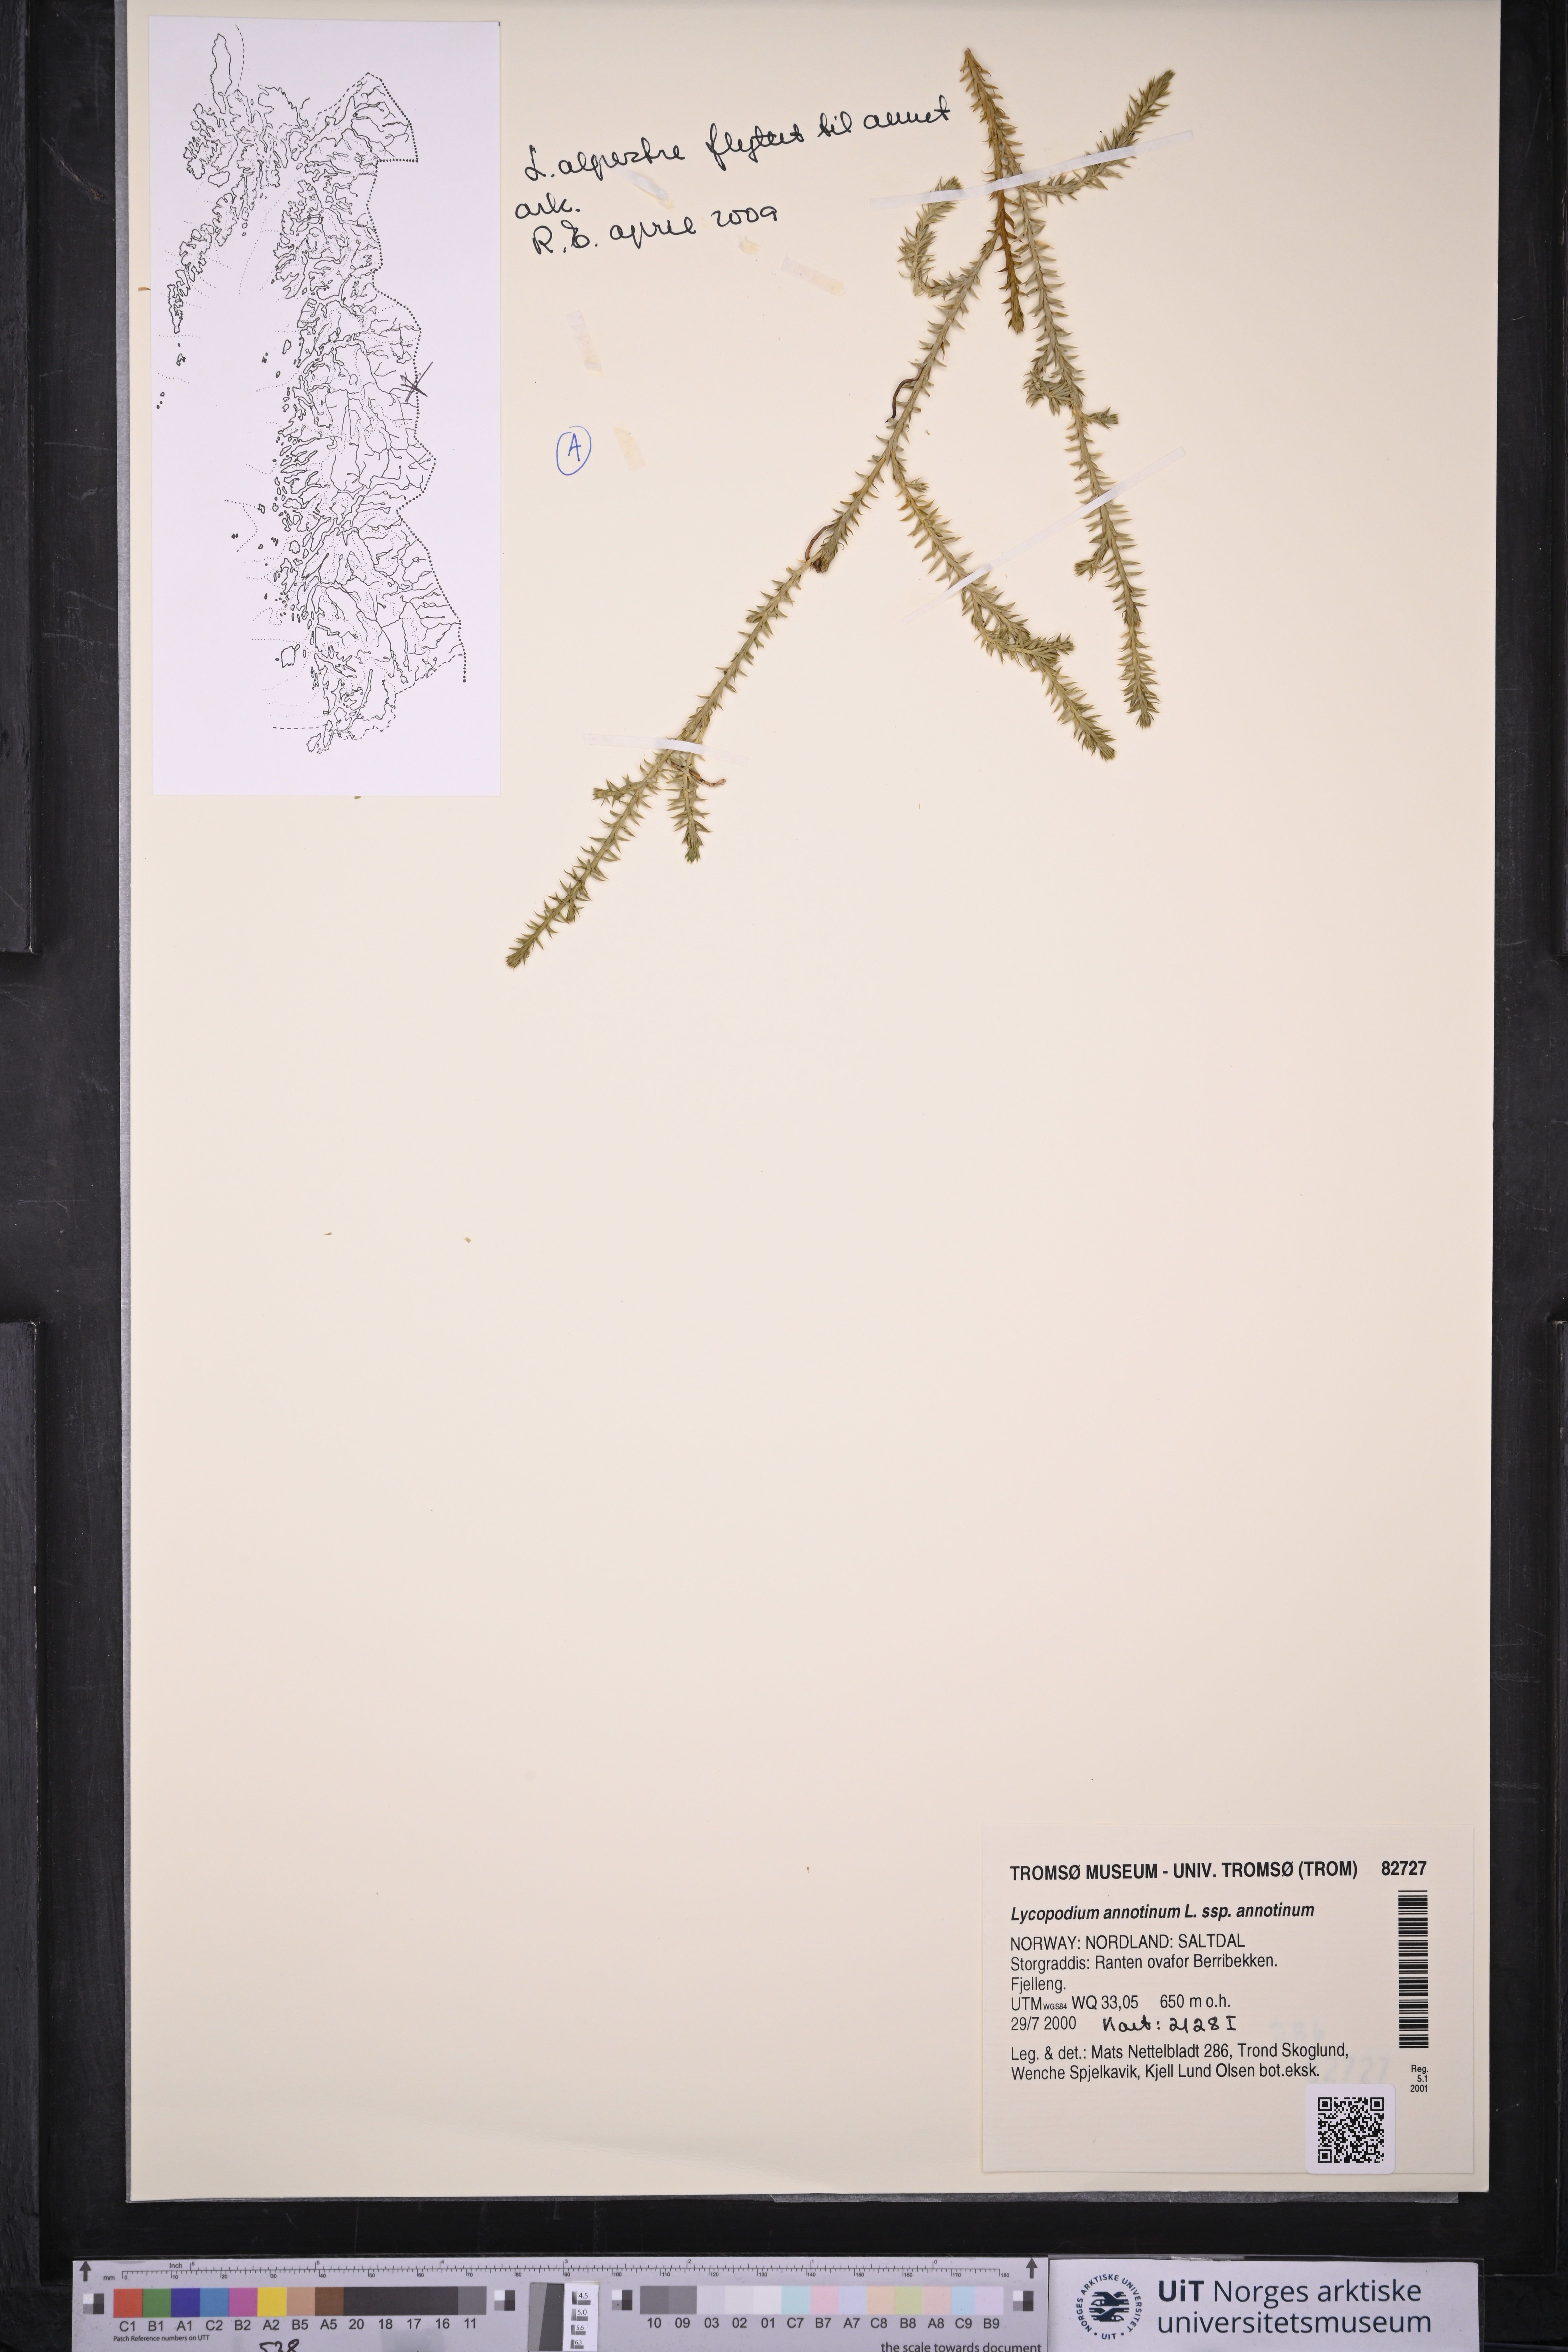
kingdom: Plantae
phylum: Tracheophyta
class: Lycopodiopsida
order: Lycopodiales
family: Lycopodiaceae
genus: Spinulum
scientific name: Spinulum annotinum
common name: Interrupted club-moss
